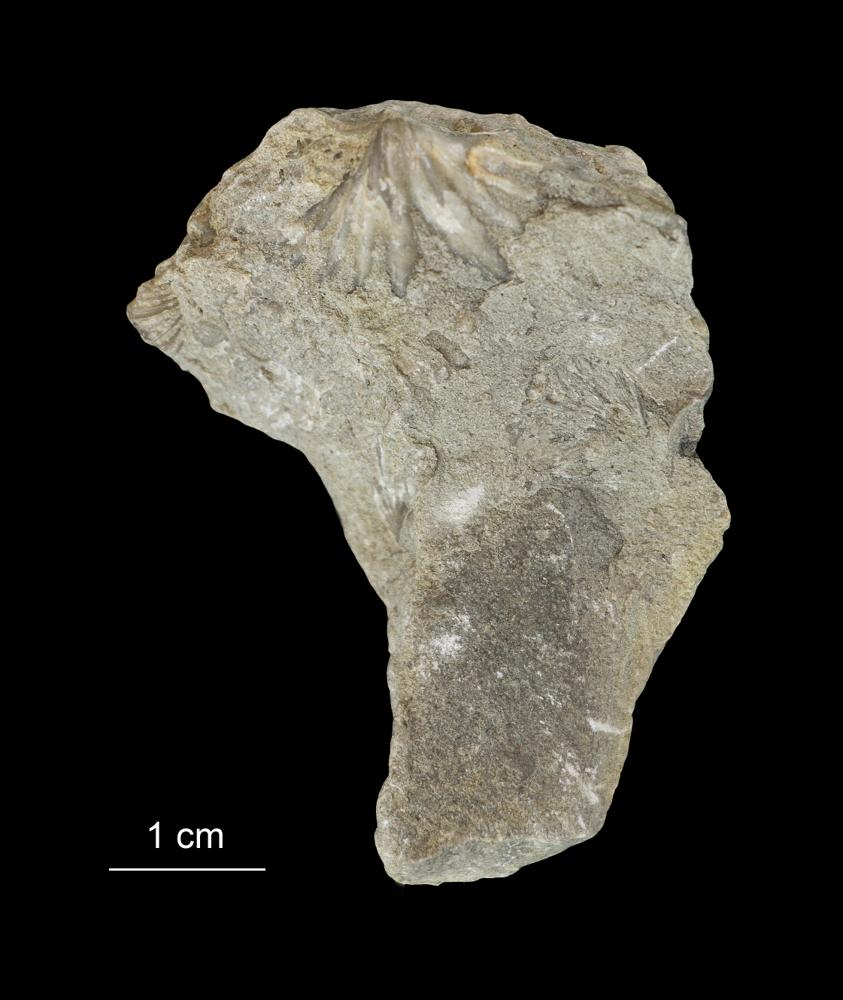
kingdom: Animalia
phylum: Brachiopoda
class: Rhynchonellata
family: Spiriferidae
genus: Spirifer
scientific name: Spirifer
